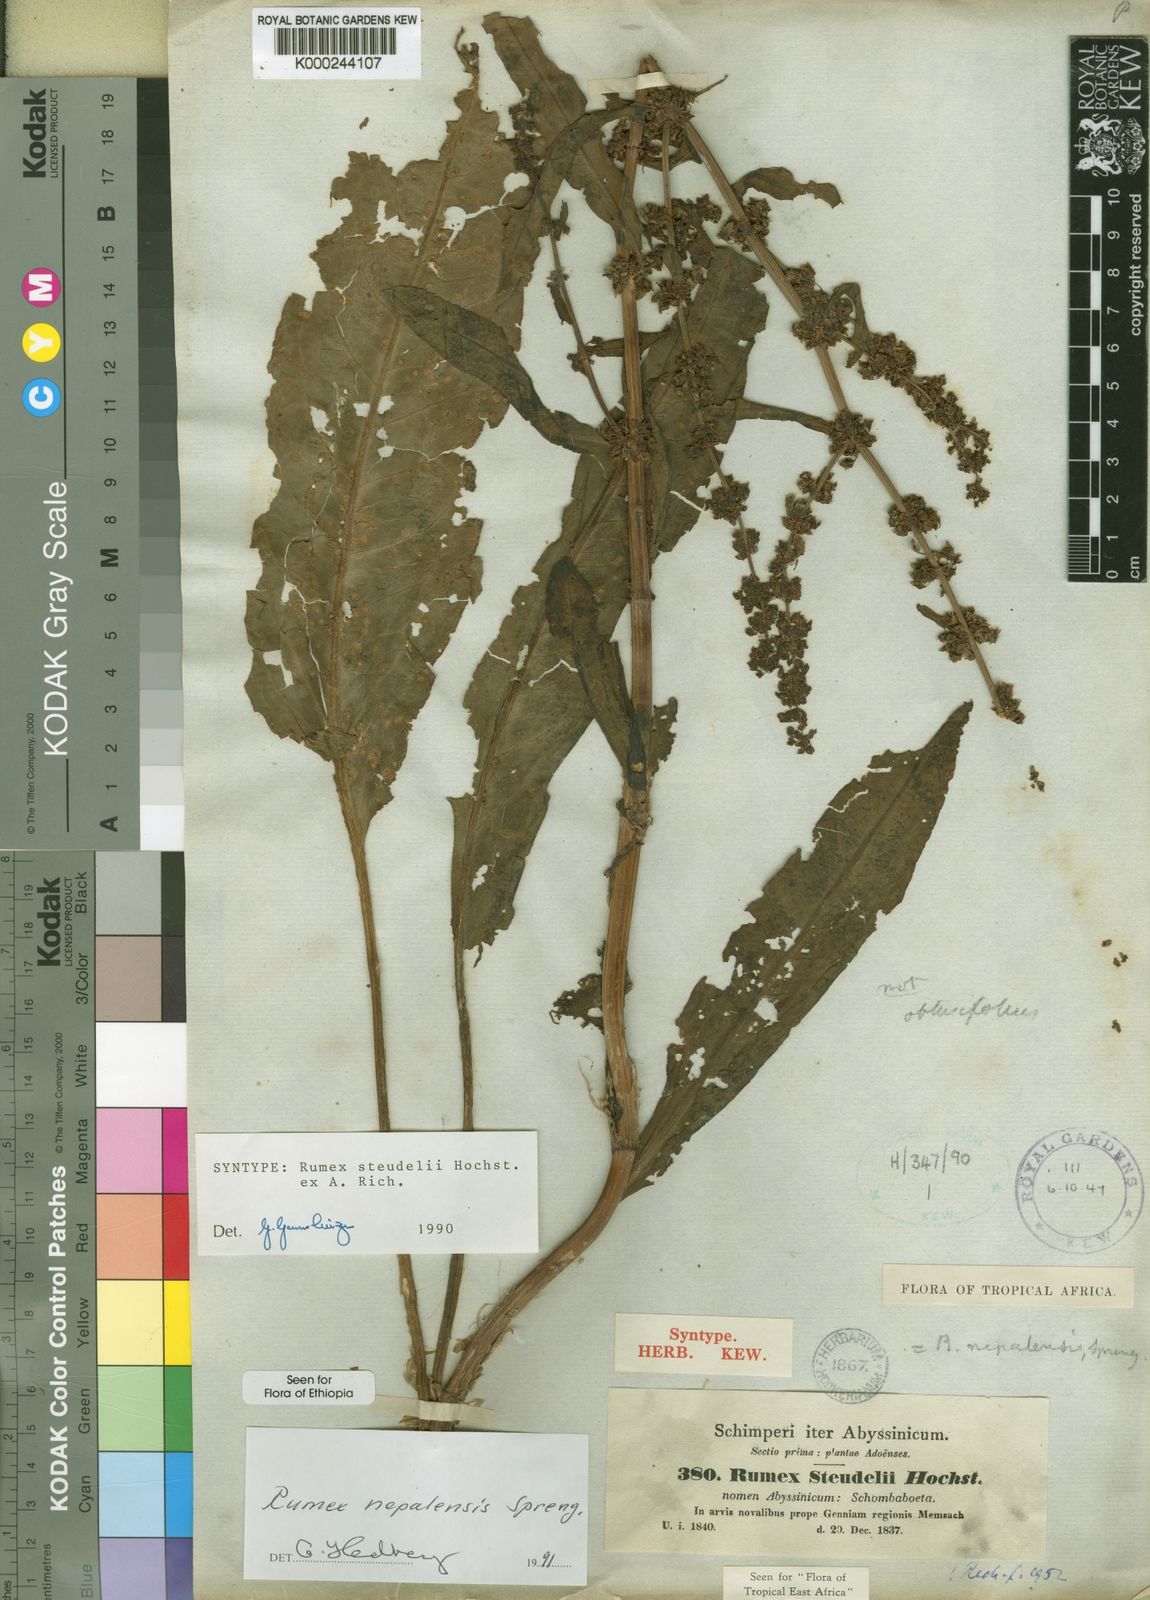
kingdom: Plantae
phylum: Tracheophyta
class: Magnoliopsida
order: Caryophyllales
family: Polygonaceae
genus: Rumex
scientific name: Rumex
